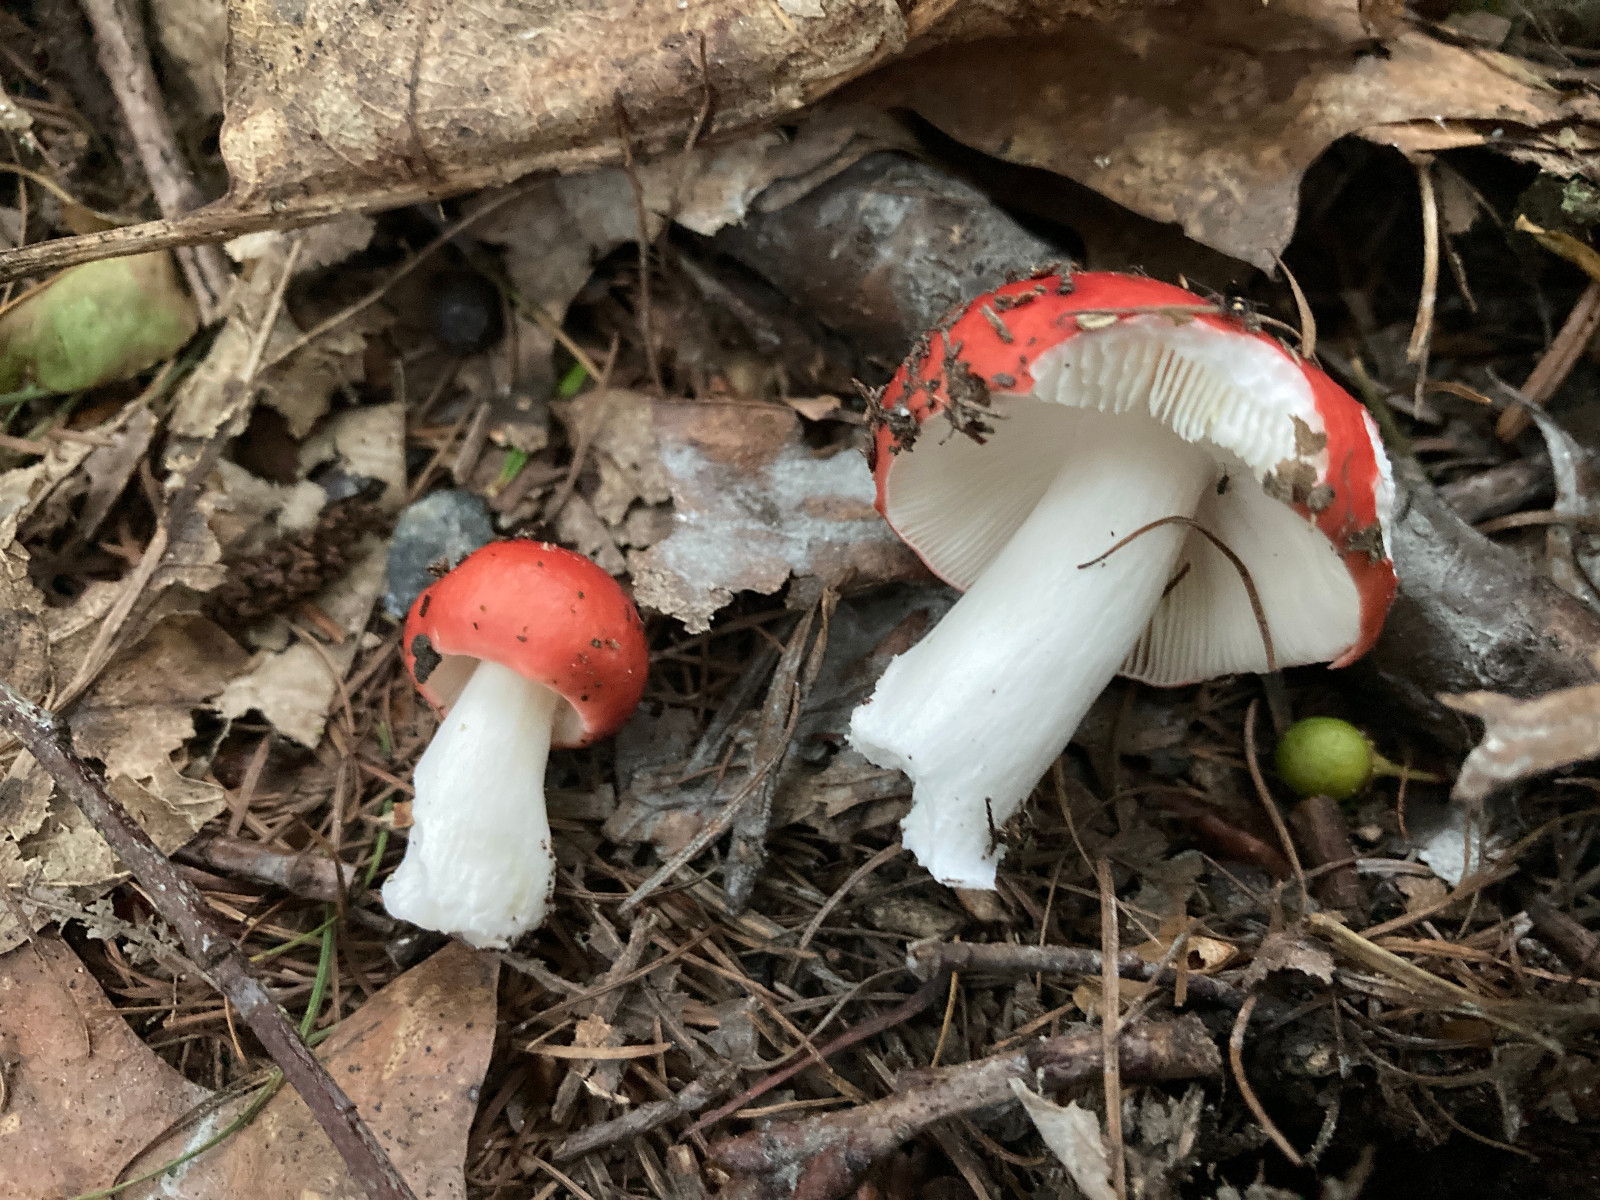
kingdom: Fungi
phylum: Basidiomycota
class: Agaricomycetes
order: Russulales
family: Russulaceae
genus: Russula
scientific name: Russula
